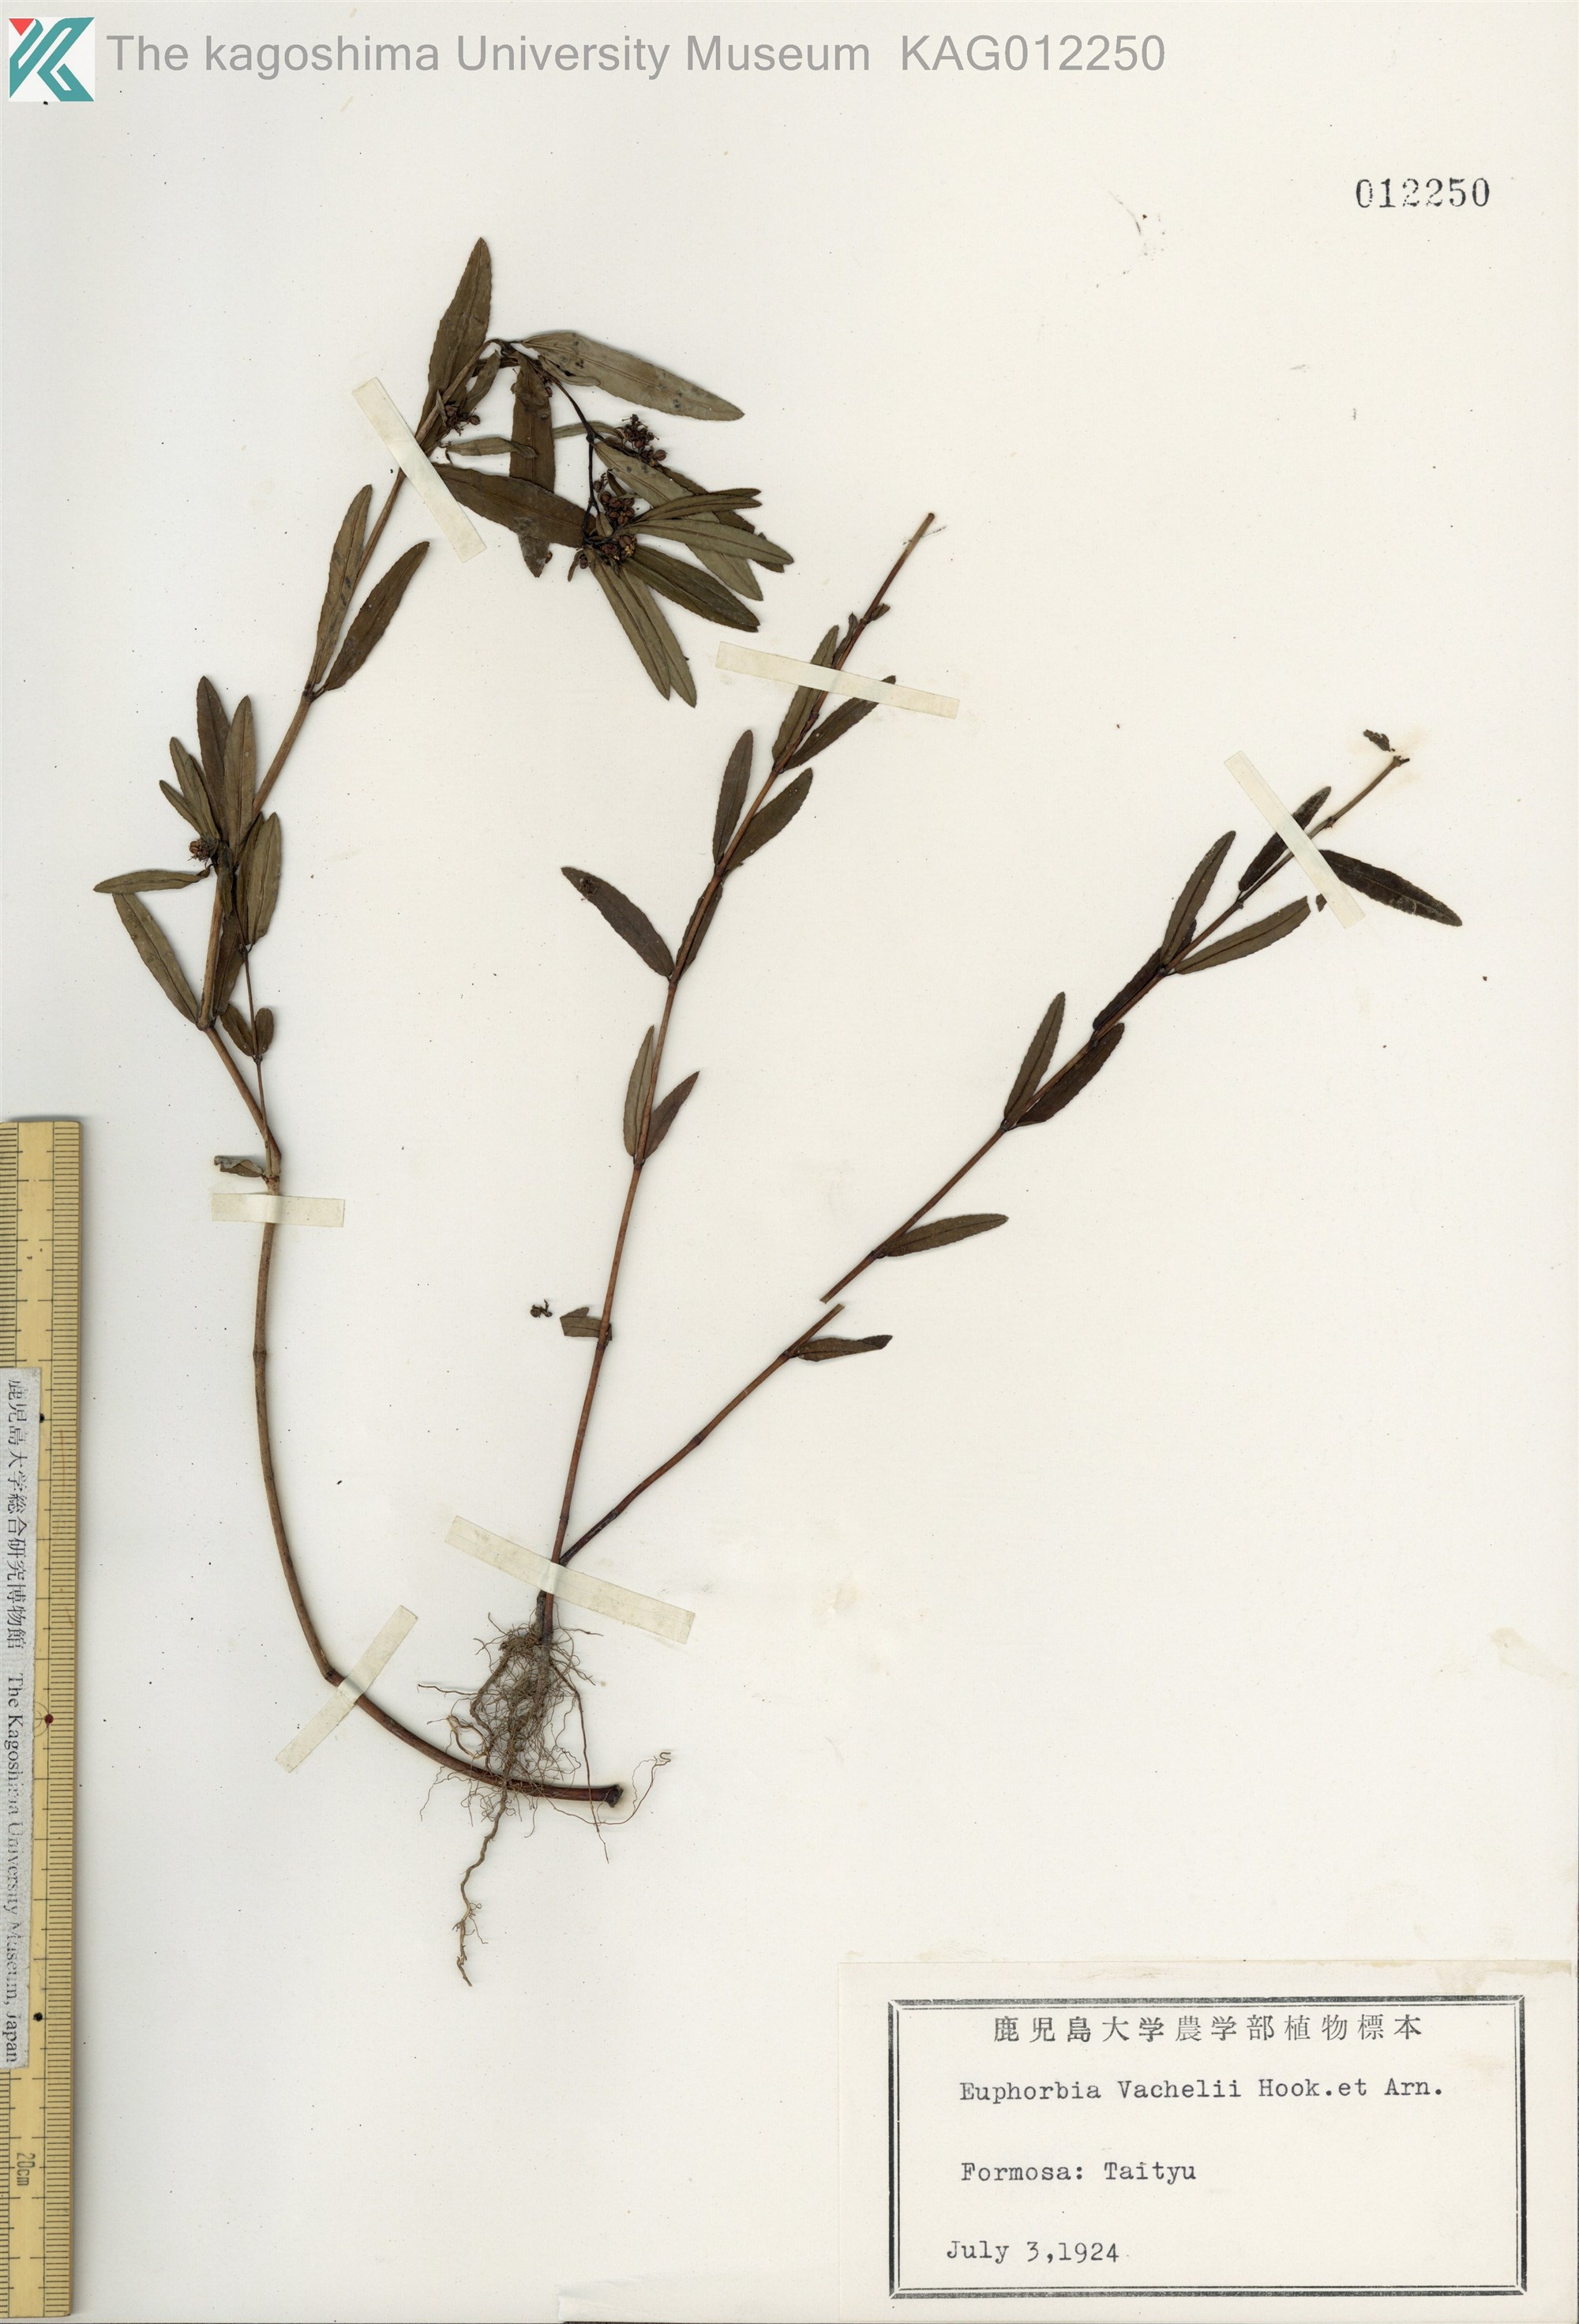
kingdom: Plantae
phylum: Tracheophyta
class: Magnoliopsida
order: Malpighiales
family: Euphorbiaceae
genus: Euphorbia
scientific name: Euphorbia bifida
